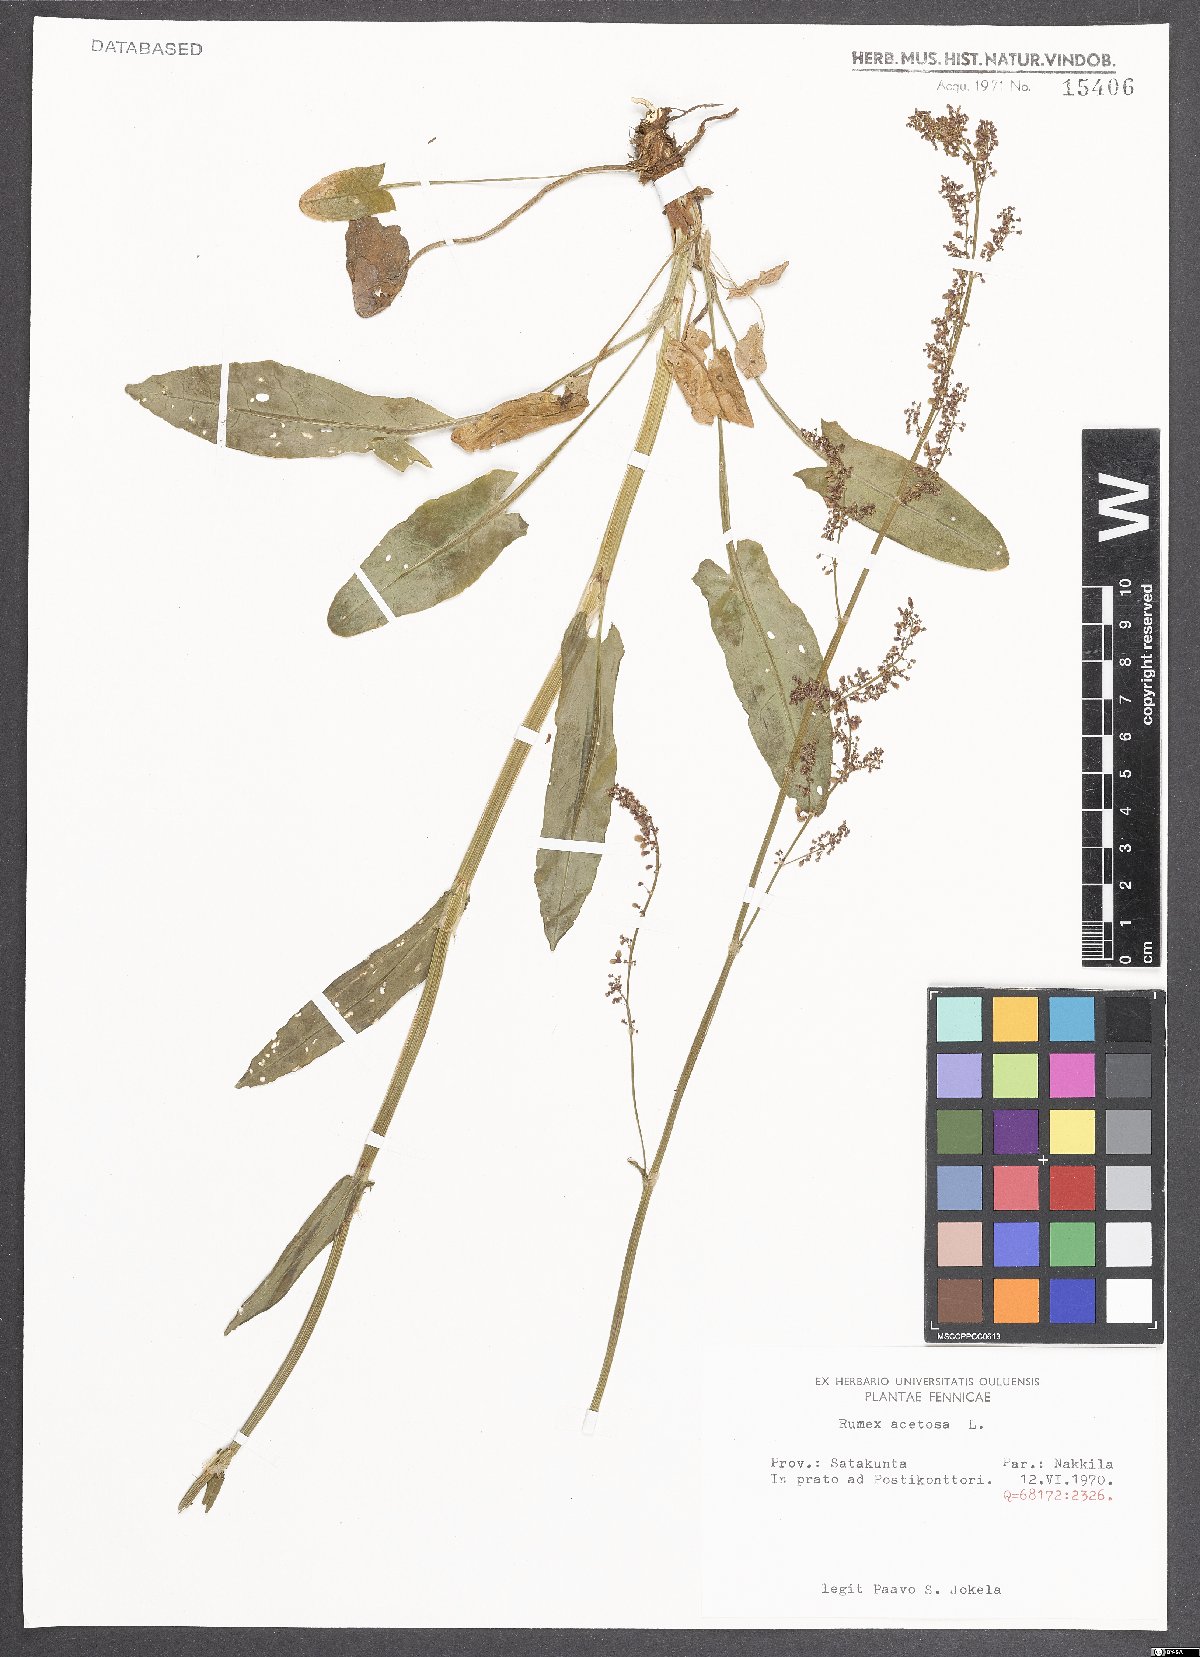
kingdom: Plantae
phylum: Tracheophyta
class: Magnoliopsida
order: Caryophyllales
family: Polygonaceae
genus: Rumex
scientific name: Rumex acetosa
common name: Garden sorrel
